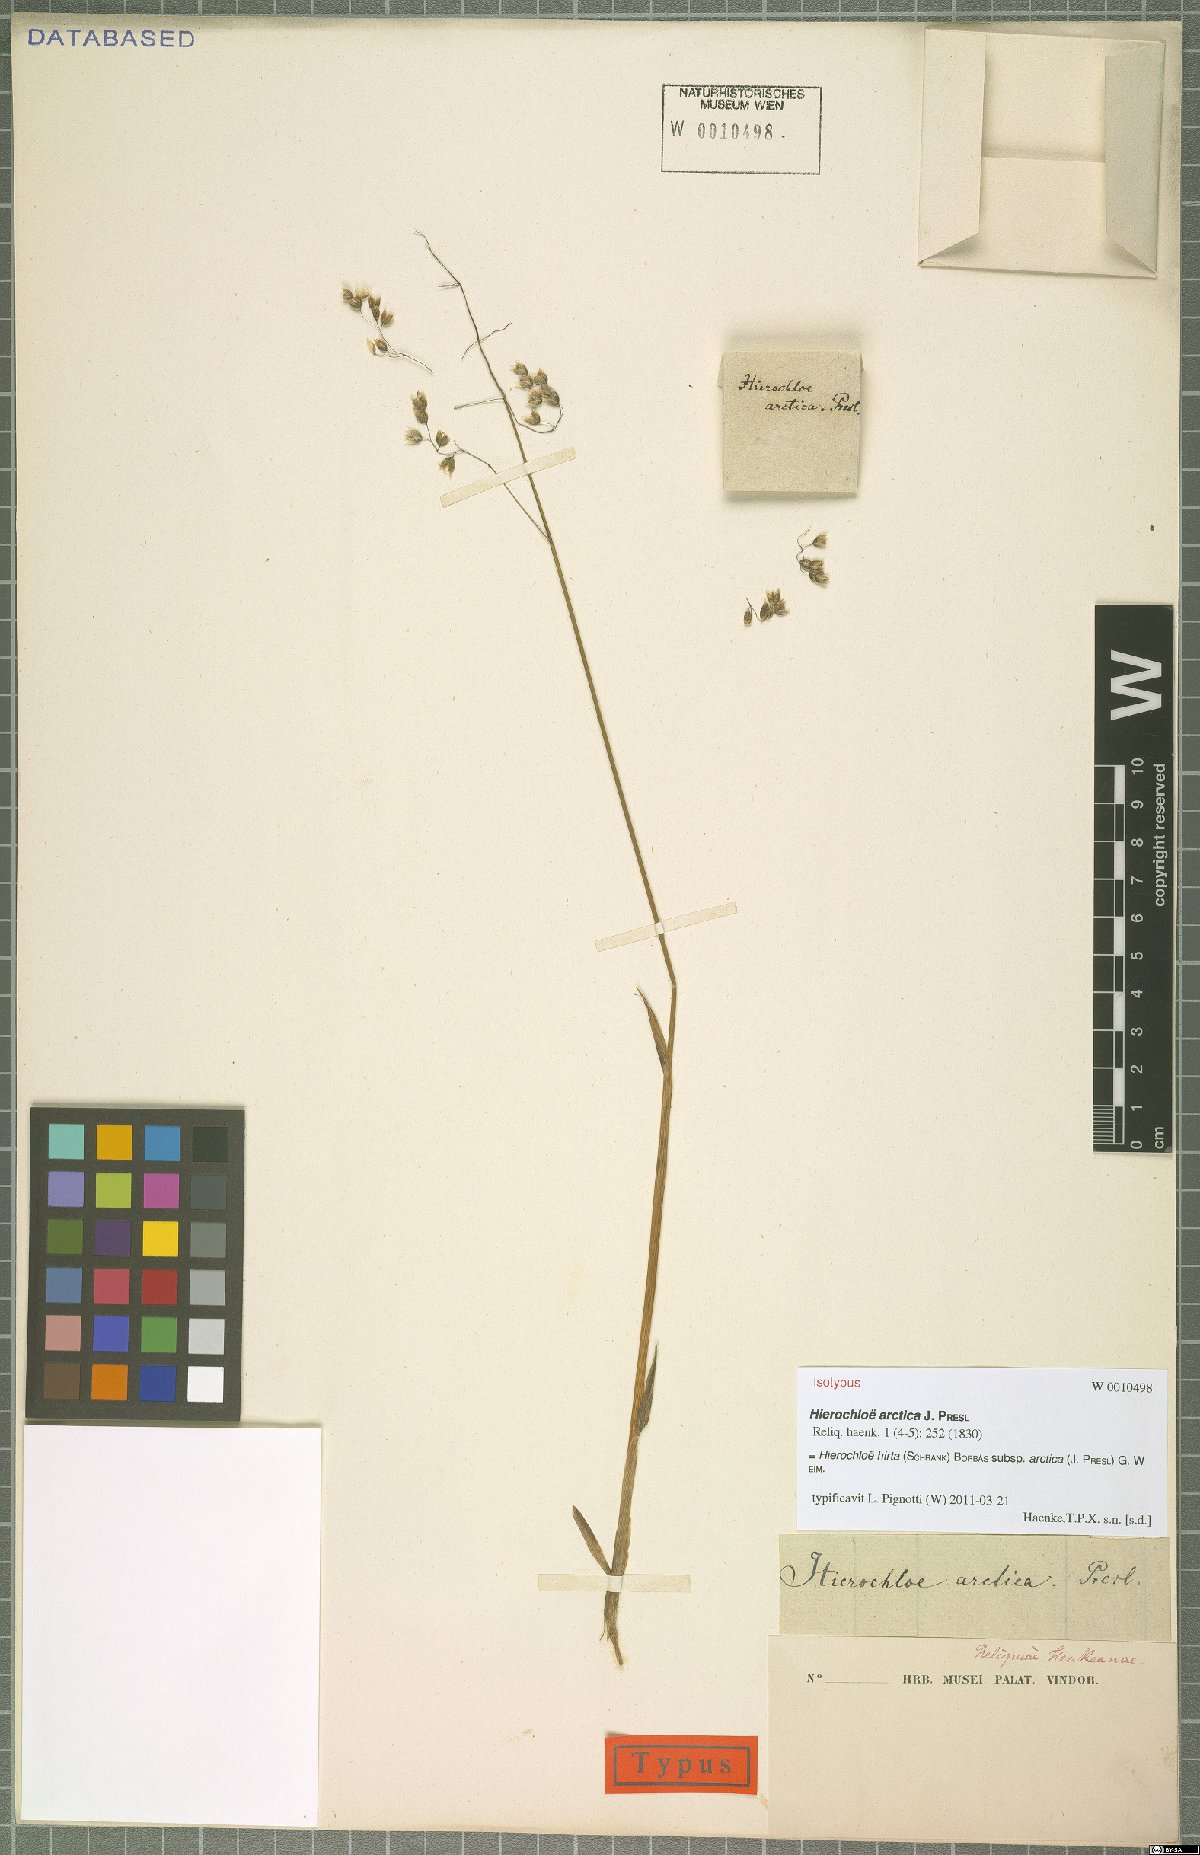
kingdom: Plantae
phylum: Tracheophyta
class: Liliopsida
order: Poales
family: Poaceae
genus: Anthoxanthum
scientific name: Anthoxanthum nitens
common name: Holy grass
